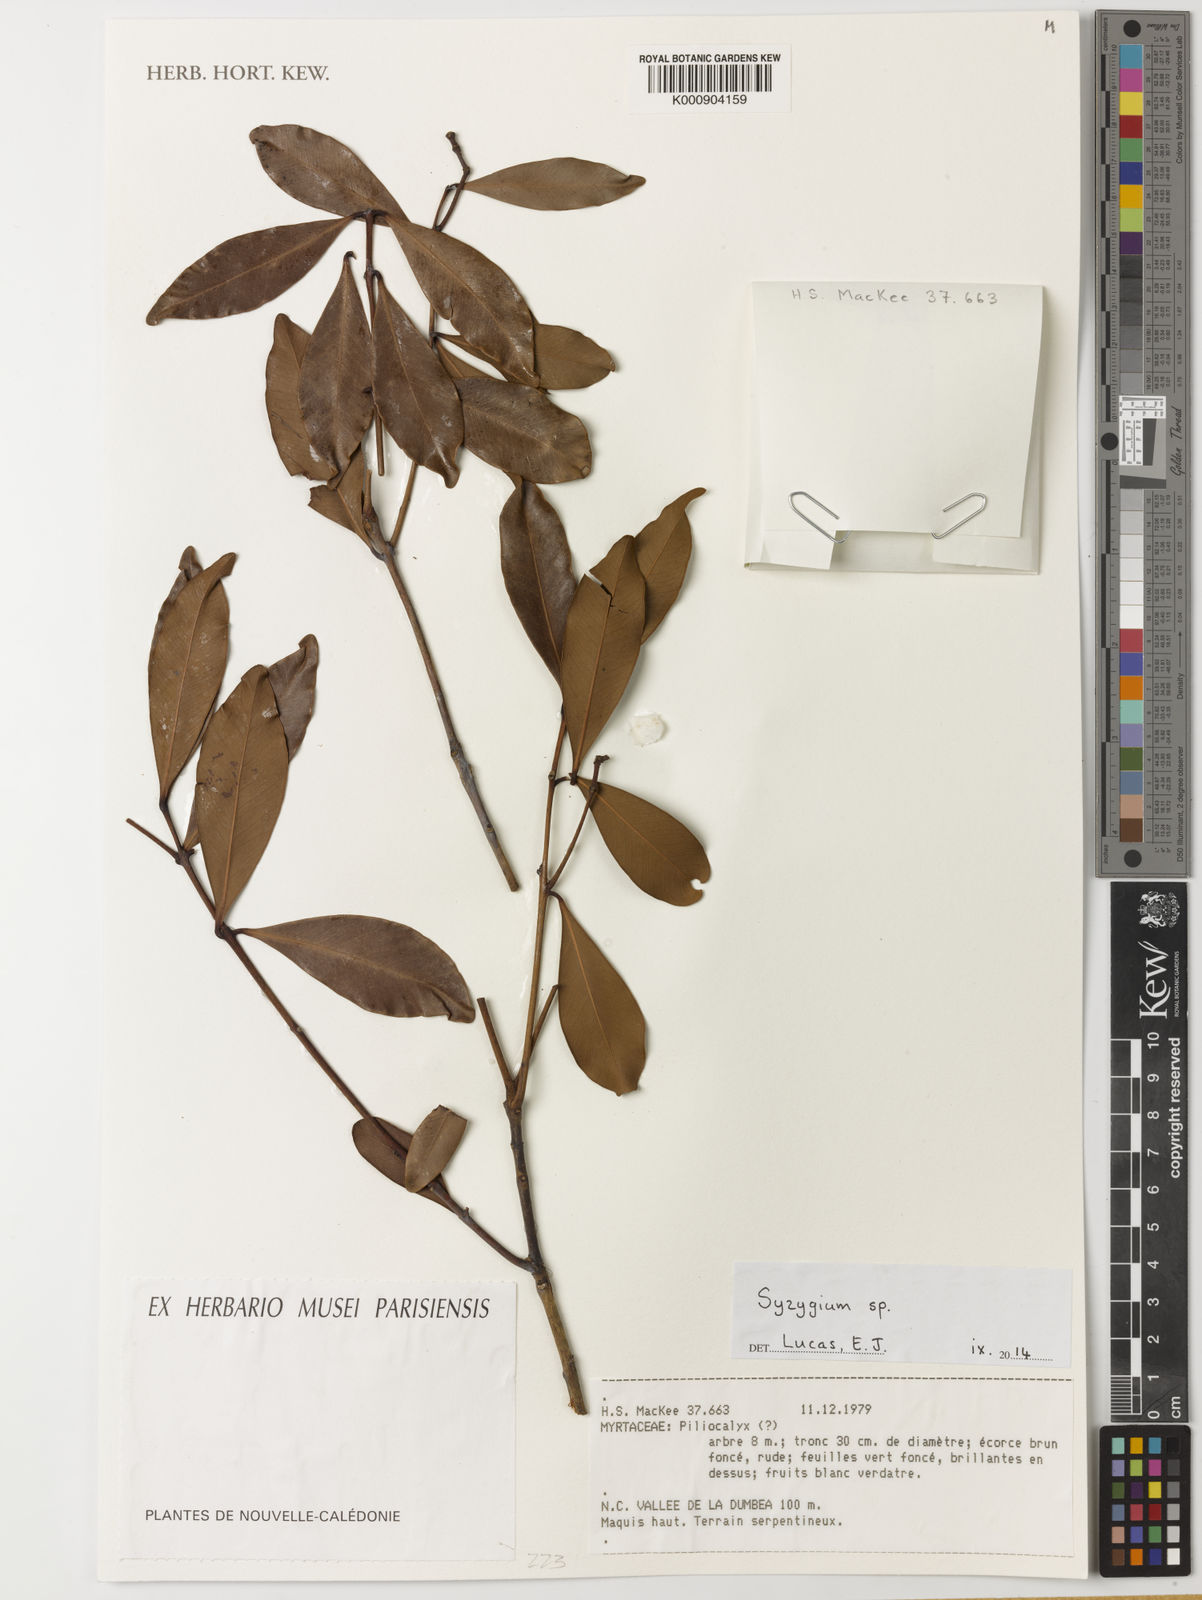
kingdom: Plantae
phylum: Tracheophyta
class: Magnoliopsida
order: Myrtales
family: Myrtaceae
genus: Syzygium
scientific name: Syzygium
